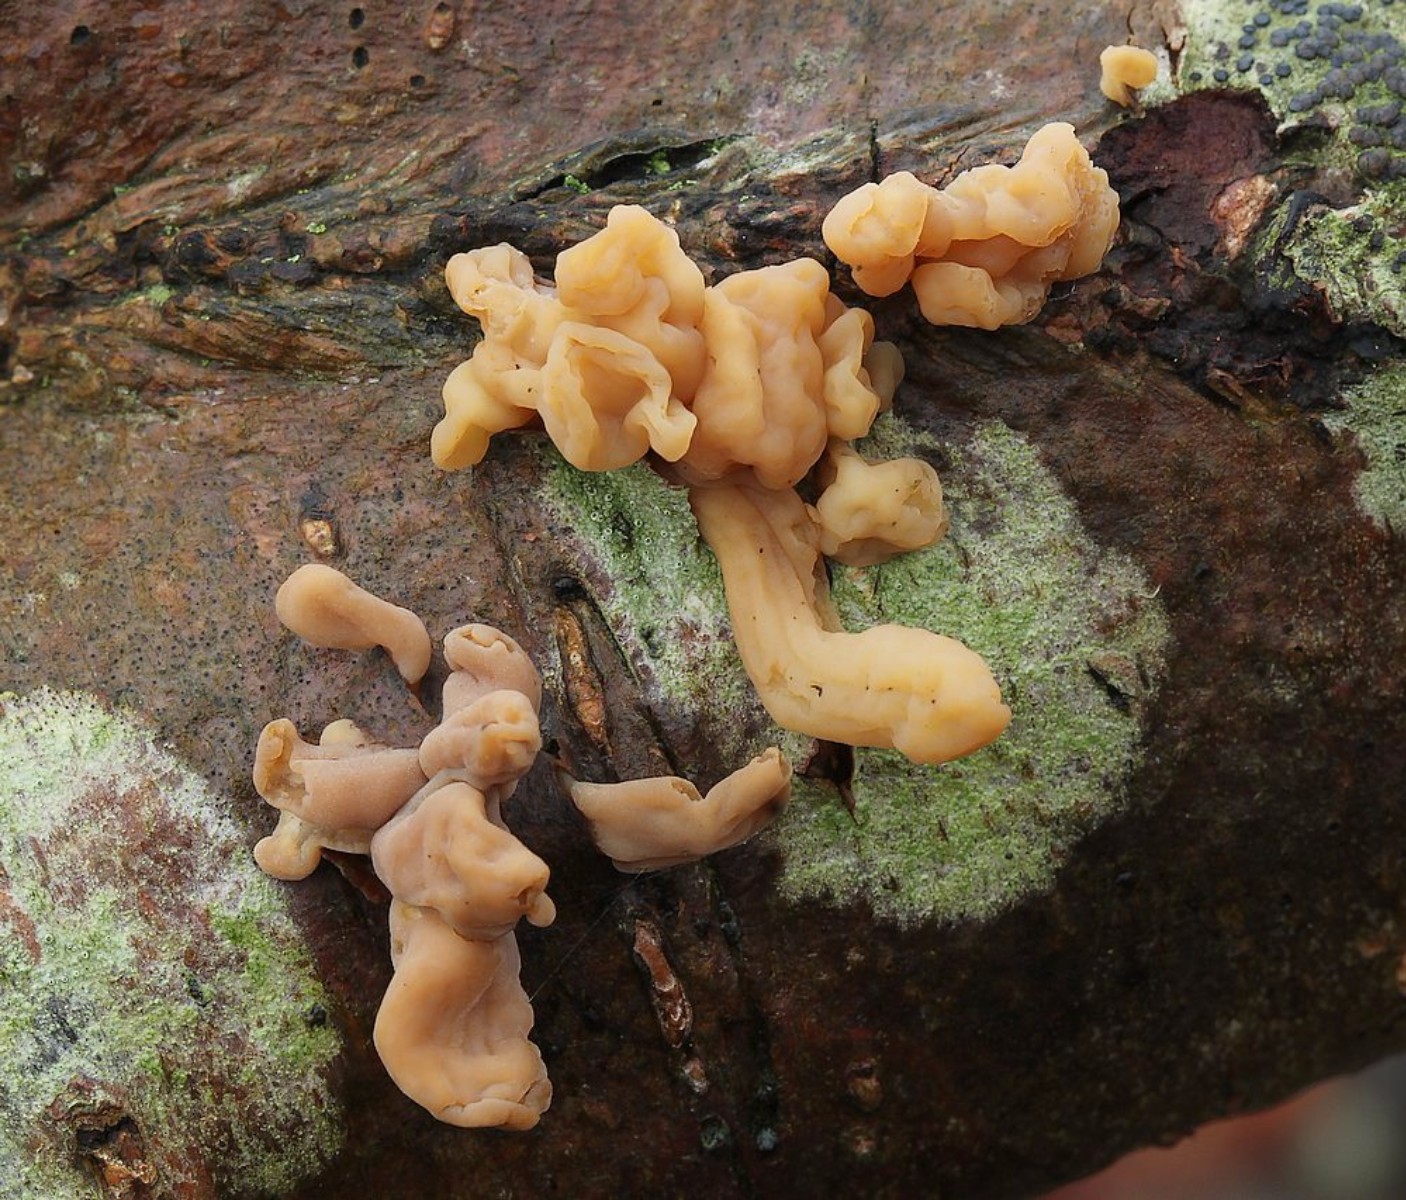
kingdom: Fungi
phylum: Basidiomycota
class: Agaricomycetes
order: Agaricales
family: Typhulaceae
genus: Typhula
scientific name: Typhula fistulosa
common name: pibet rørkølle
